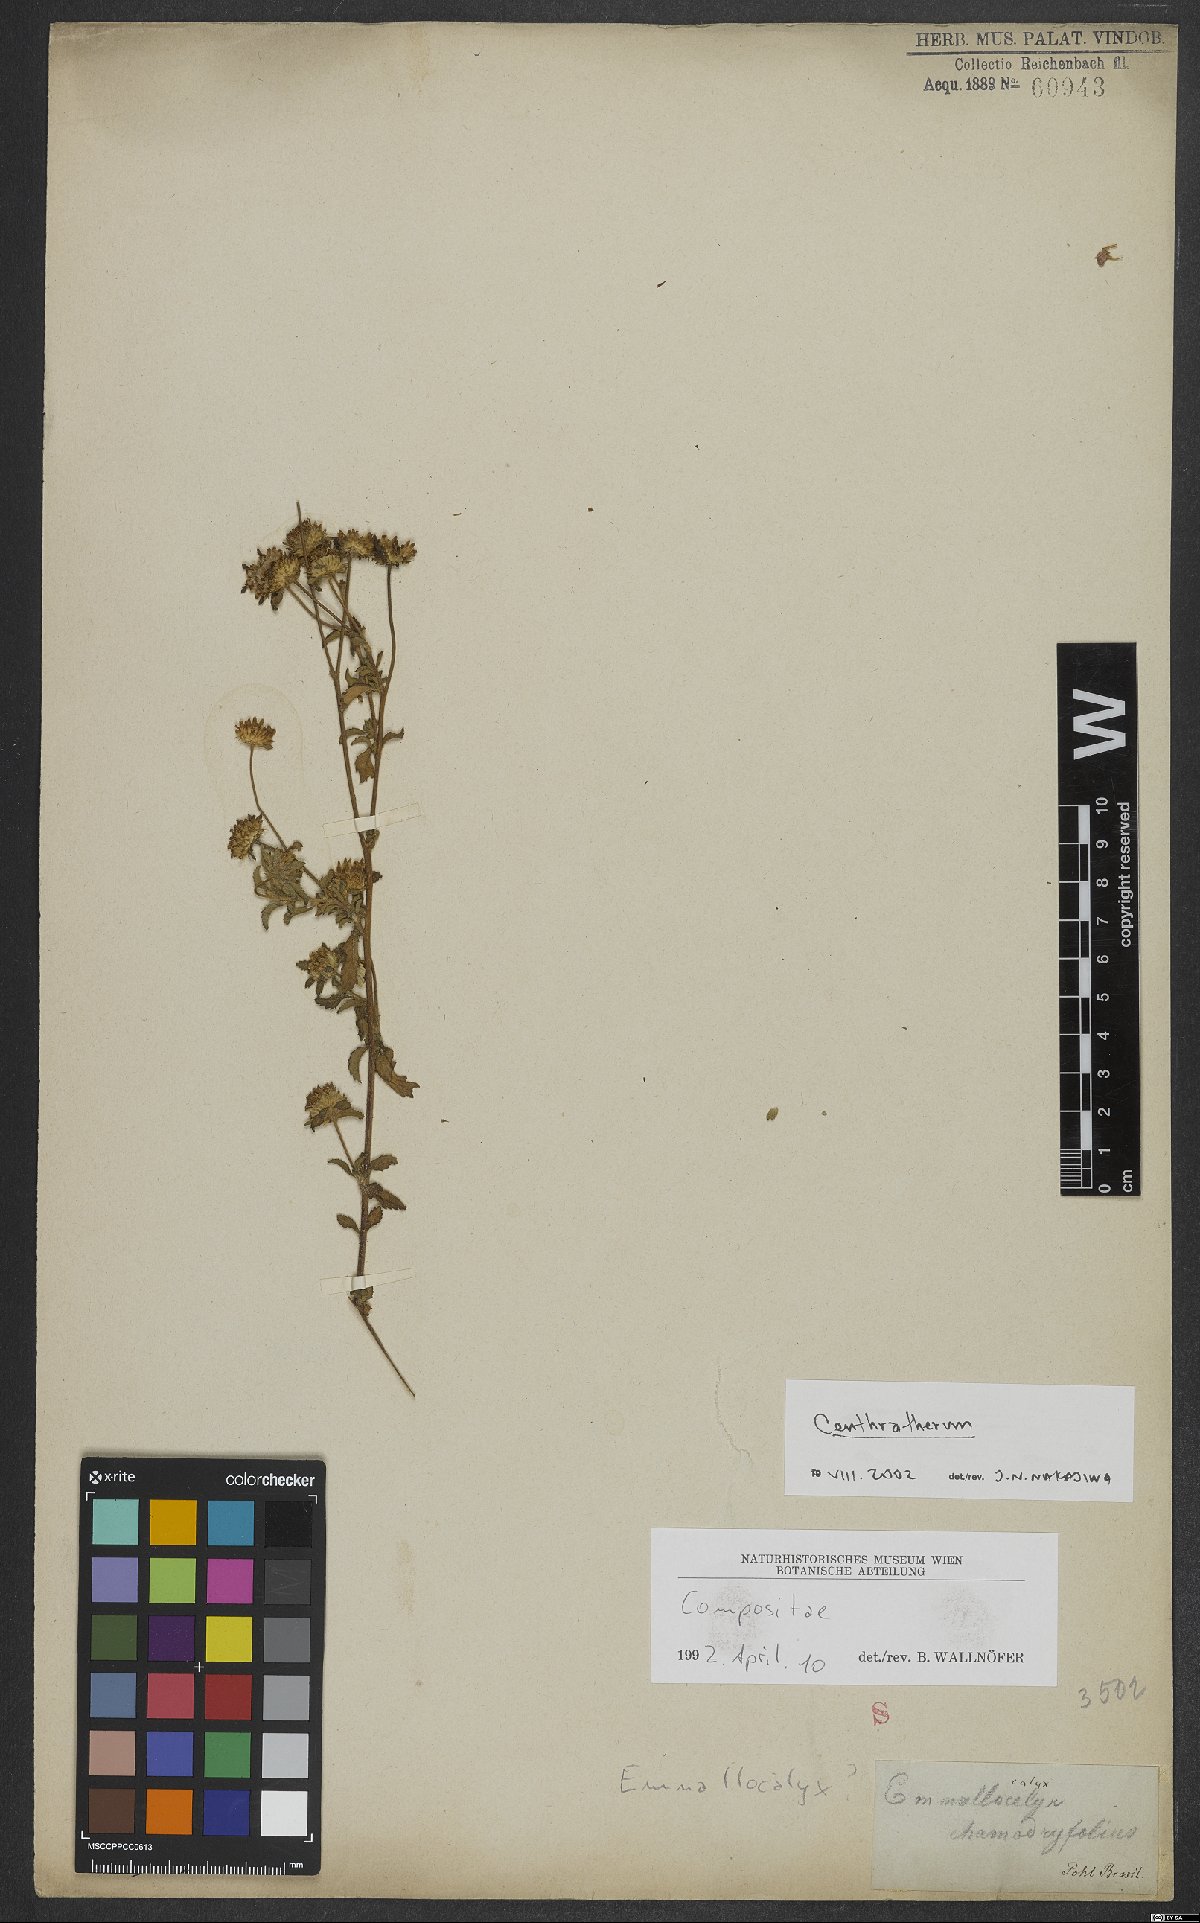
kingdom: Plantae
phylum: Tracheophyta
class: Magnoliopsida
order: Asterales
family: Asteraceae
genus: Centratherum
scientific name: Centratherum
